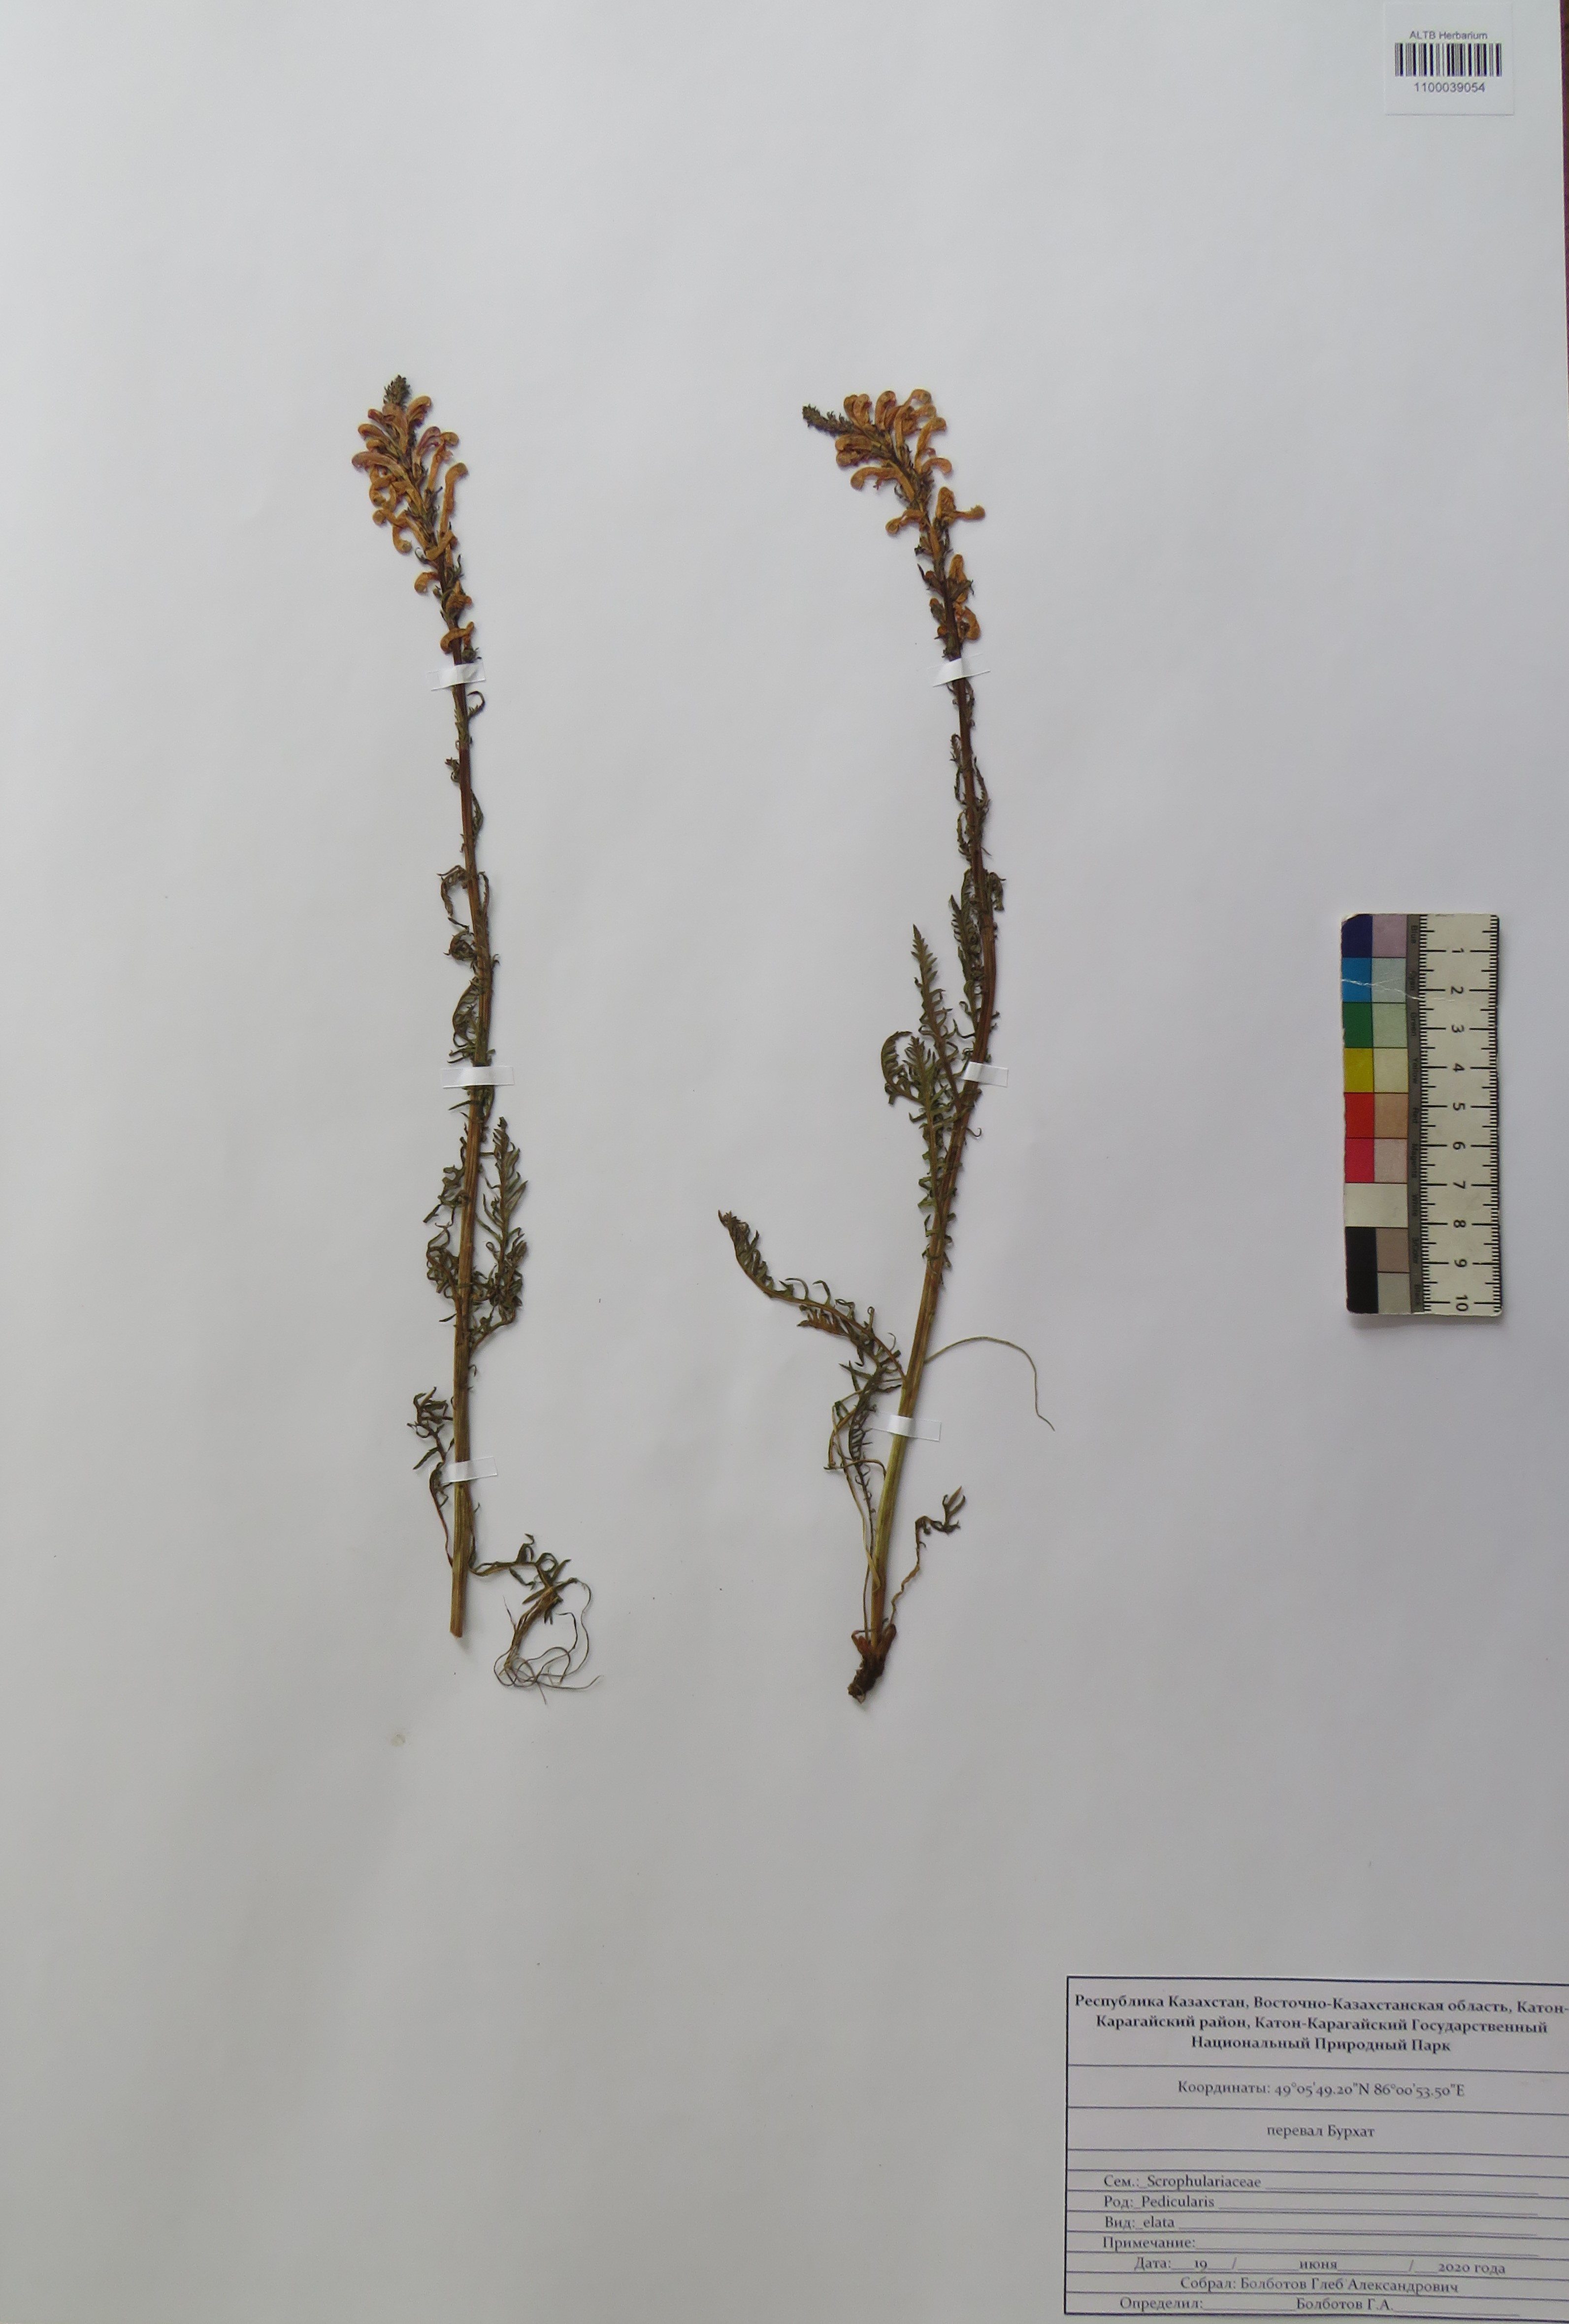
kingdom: Plantae
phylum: Tracheophyta
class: Magnoliopsida
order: Lamiales
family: Orobanchaceae
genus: Pedicularis
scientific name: Pedicularis elata
